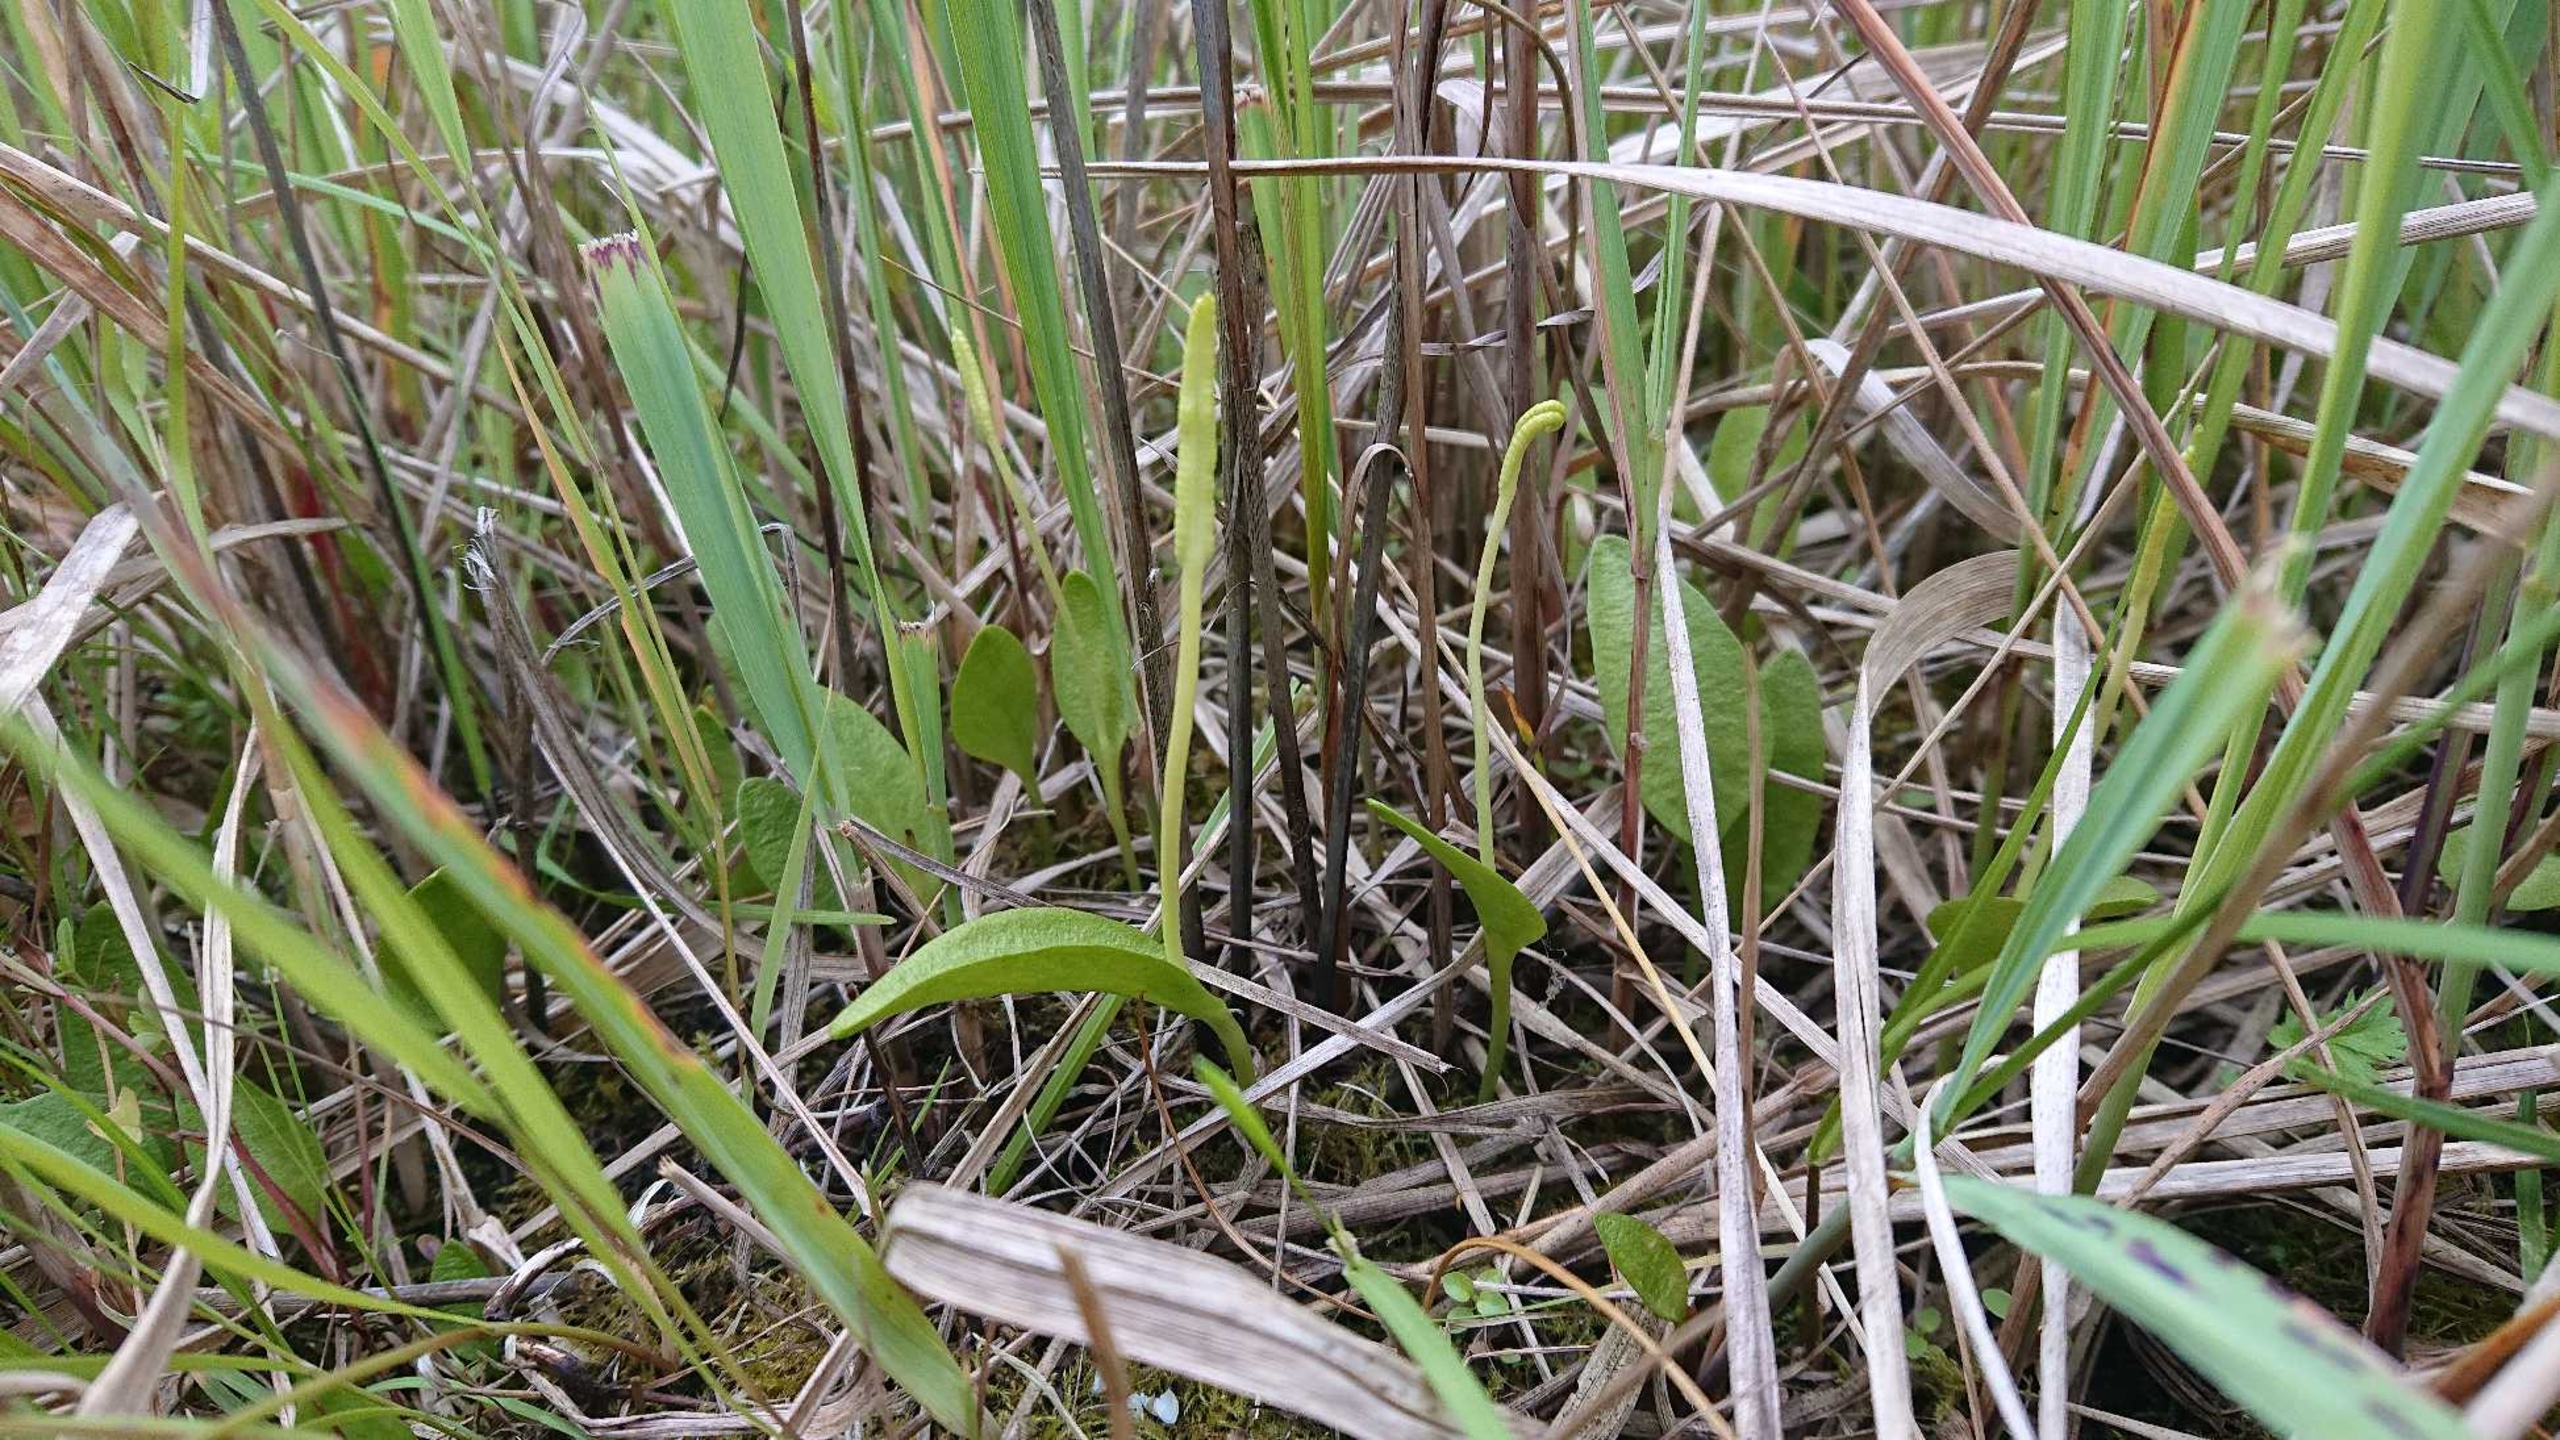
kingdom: Plantae
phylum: Tracheophyta
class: Polypodiopsida
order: Ophioglossales
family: Ophioglossaceae
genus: Ophioglossum
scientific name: Ophioglossum vulgatum
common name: Slangetunge
